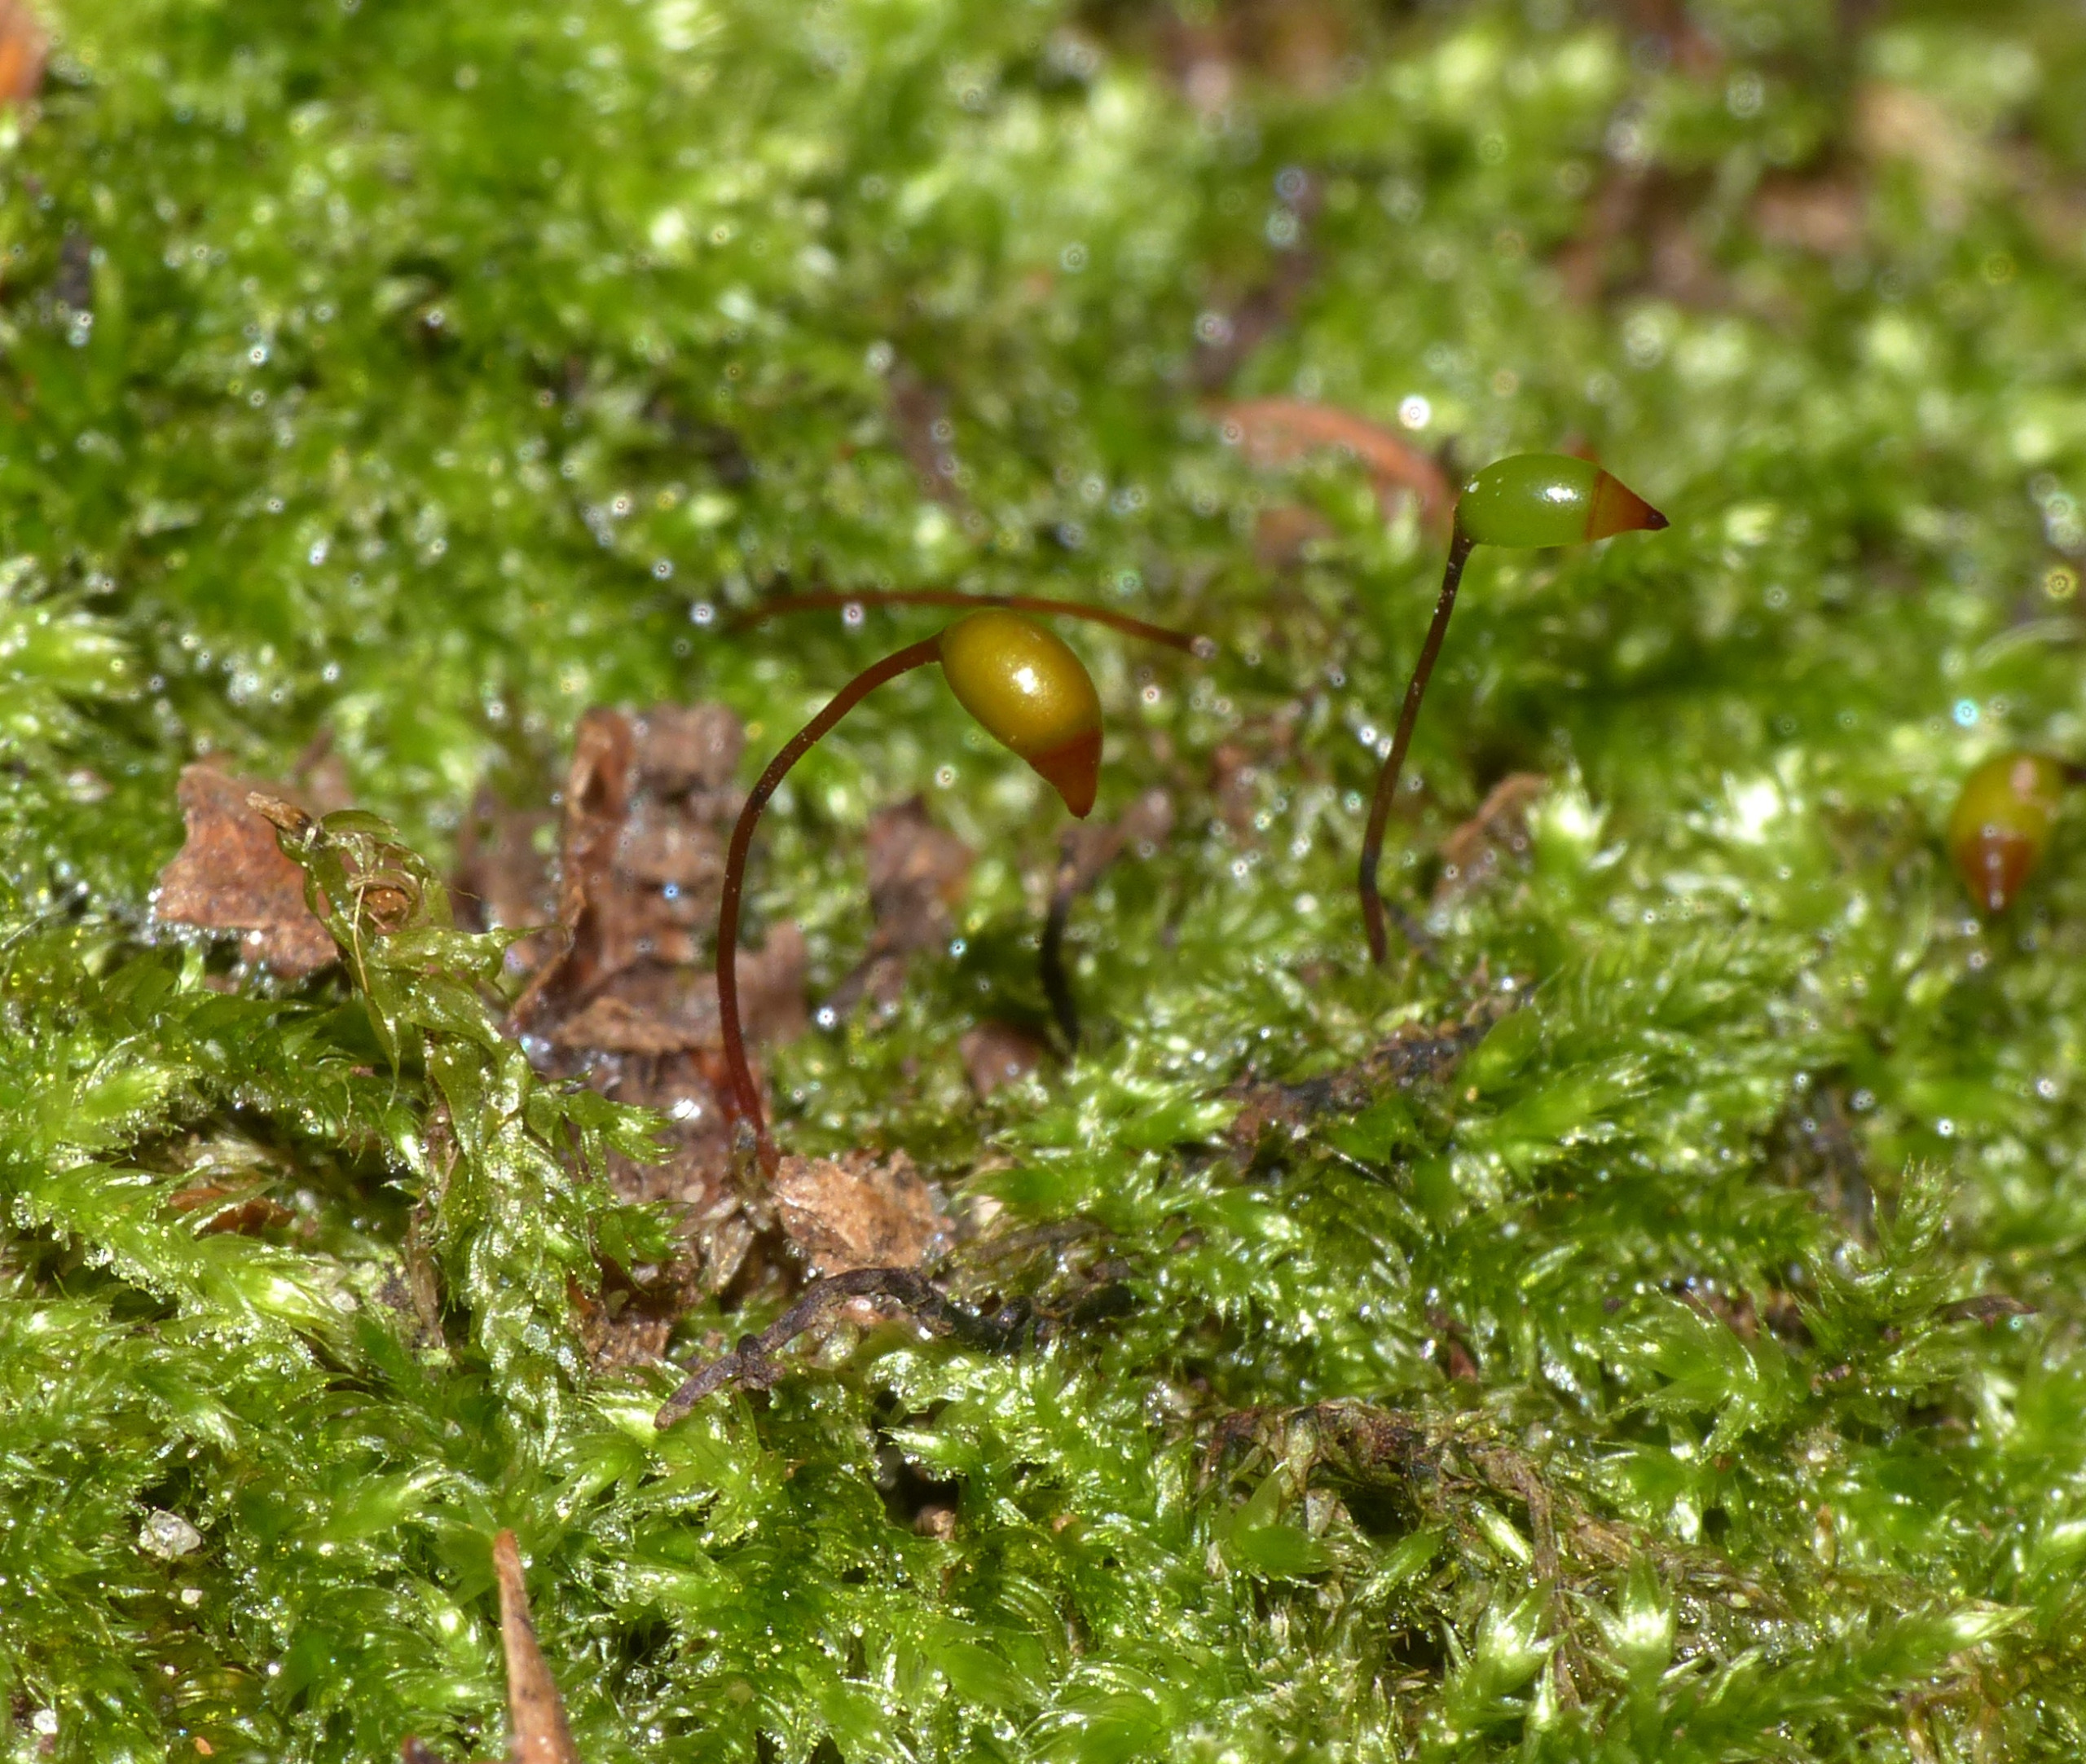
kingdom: Plantae
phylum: Bryophyta
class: Bryopsida
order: Hypnales
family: Brachytheciaceae
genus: Brachythecium
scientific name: Brachythecium rutabulum
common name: Almindelig kortkapsel
